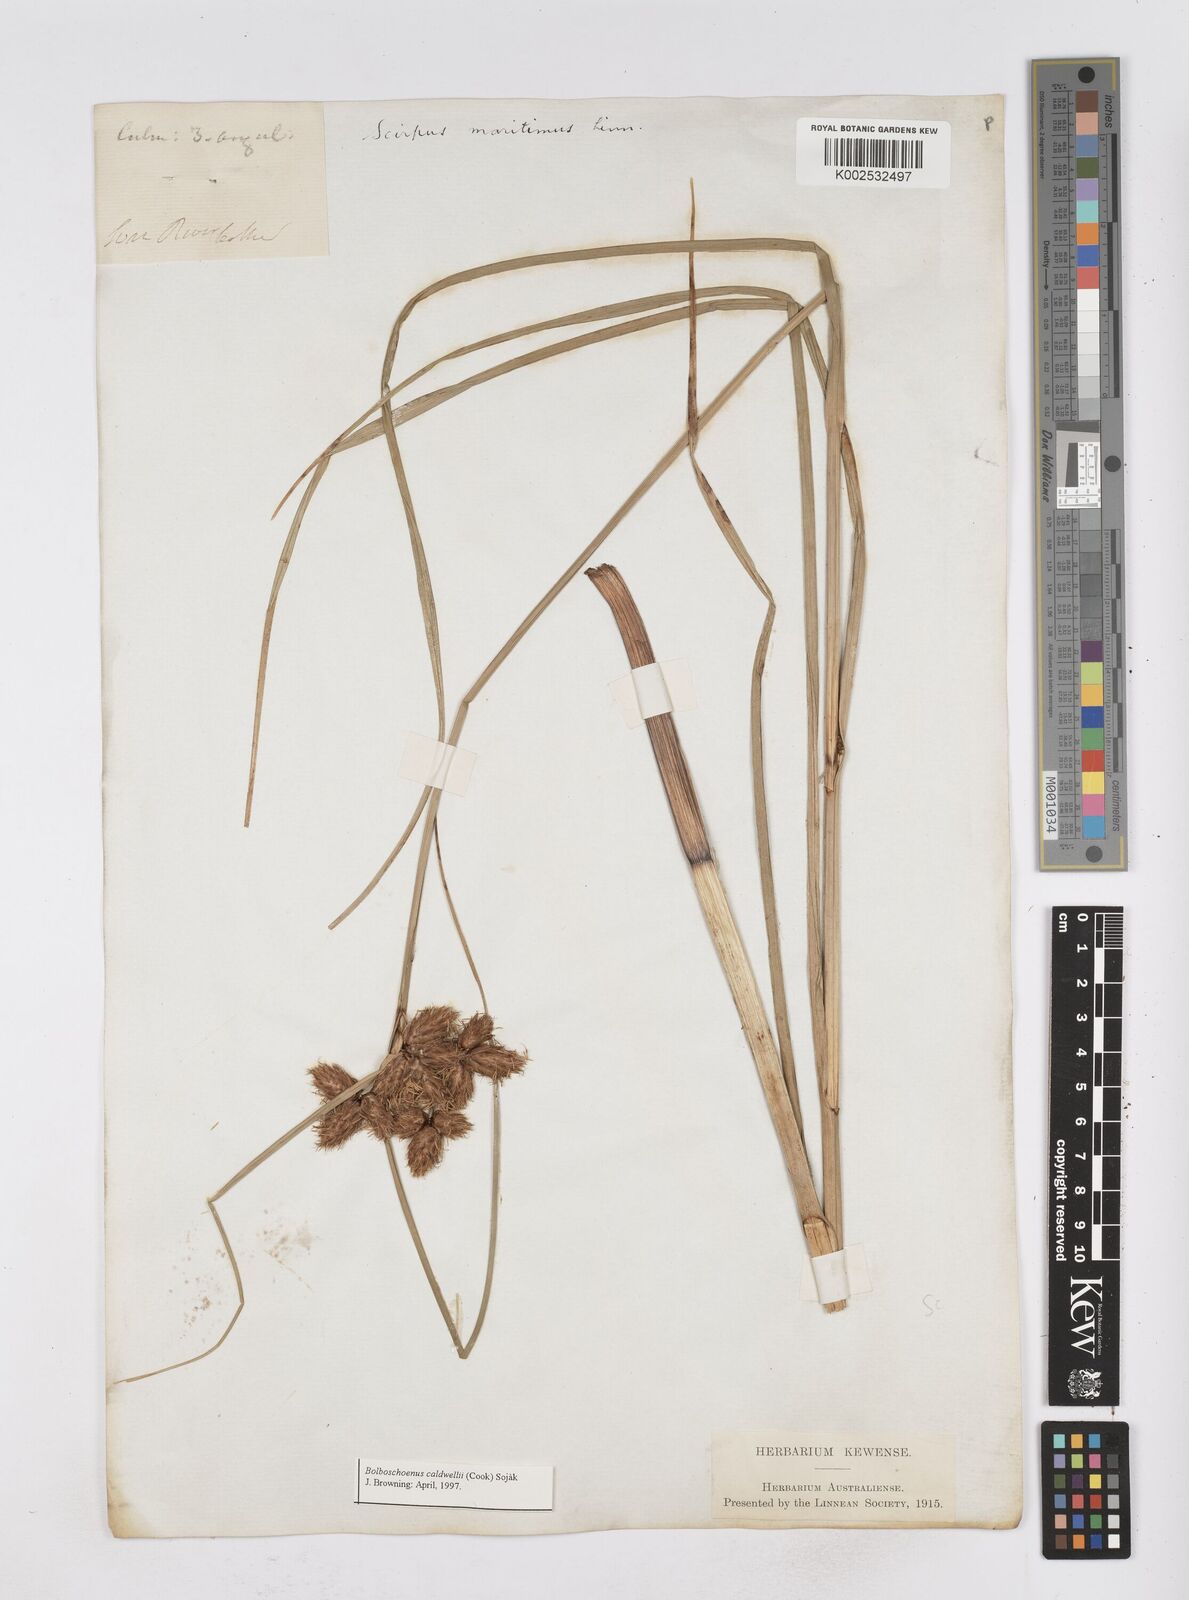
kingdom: Plantae
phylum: Tracheophyta
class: Liliopsida
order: Poales
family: Cyperaceae
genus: Bolboschoenus
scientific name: Bolboschoenus maritimus
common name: Sea club-rush
